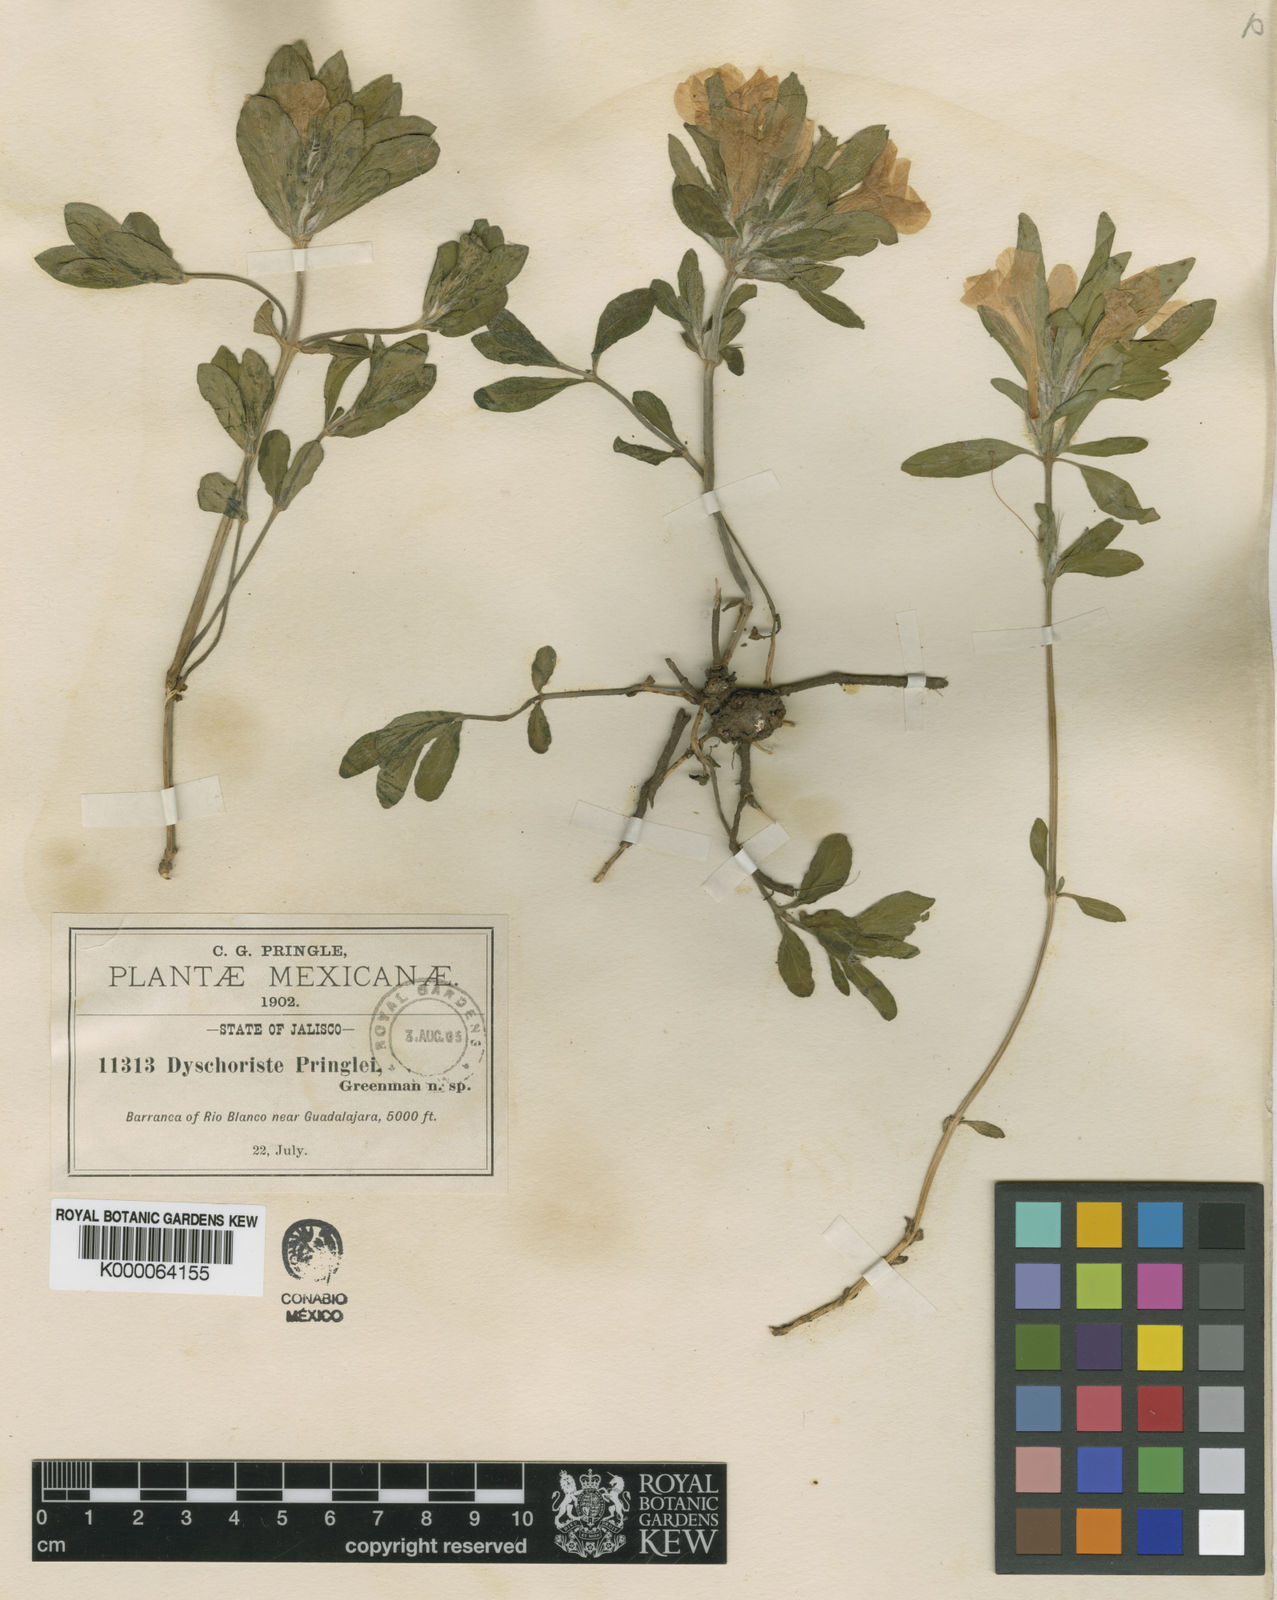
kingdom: Plantae
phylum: Tracheophyta
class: Magnoliopsida
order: Lamiales
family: Acanthaceae
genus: Dyschoriste
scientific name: Dyschoriste pringlei
